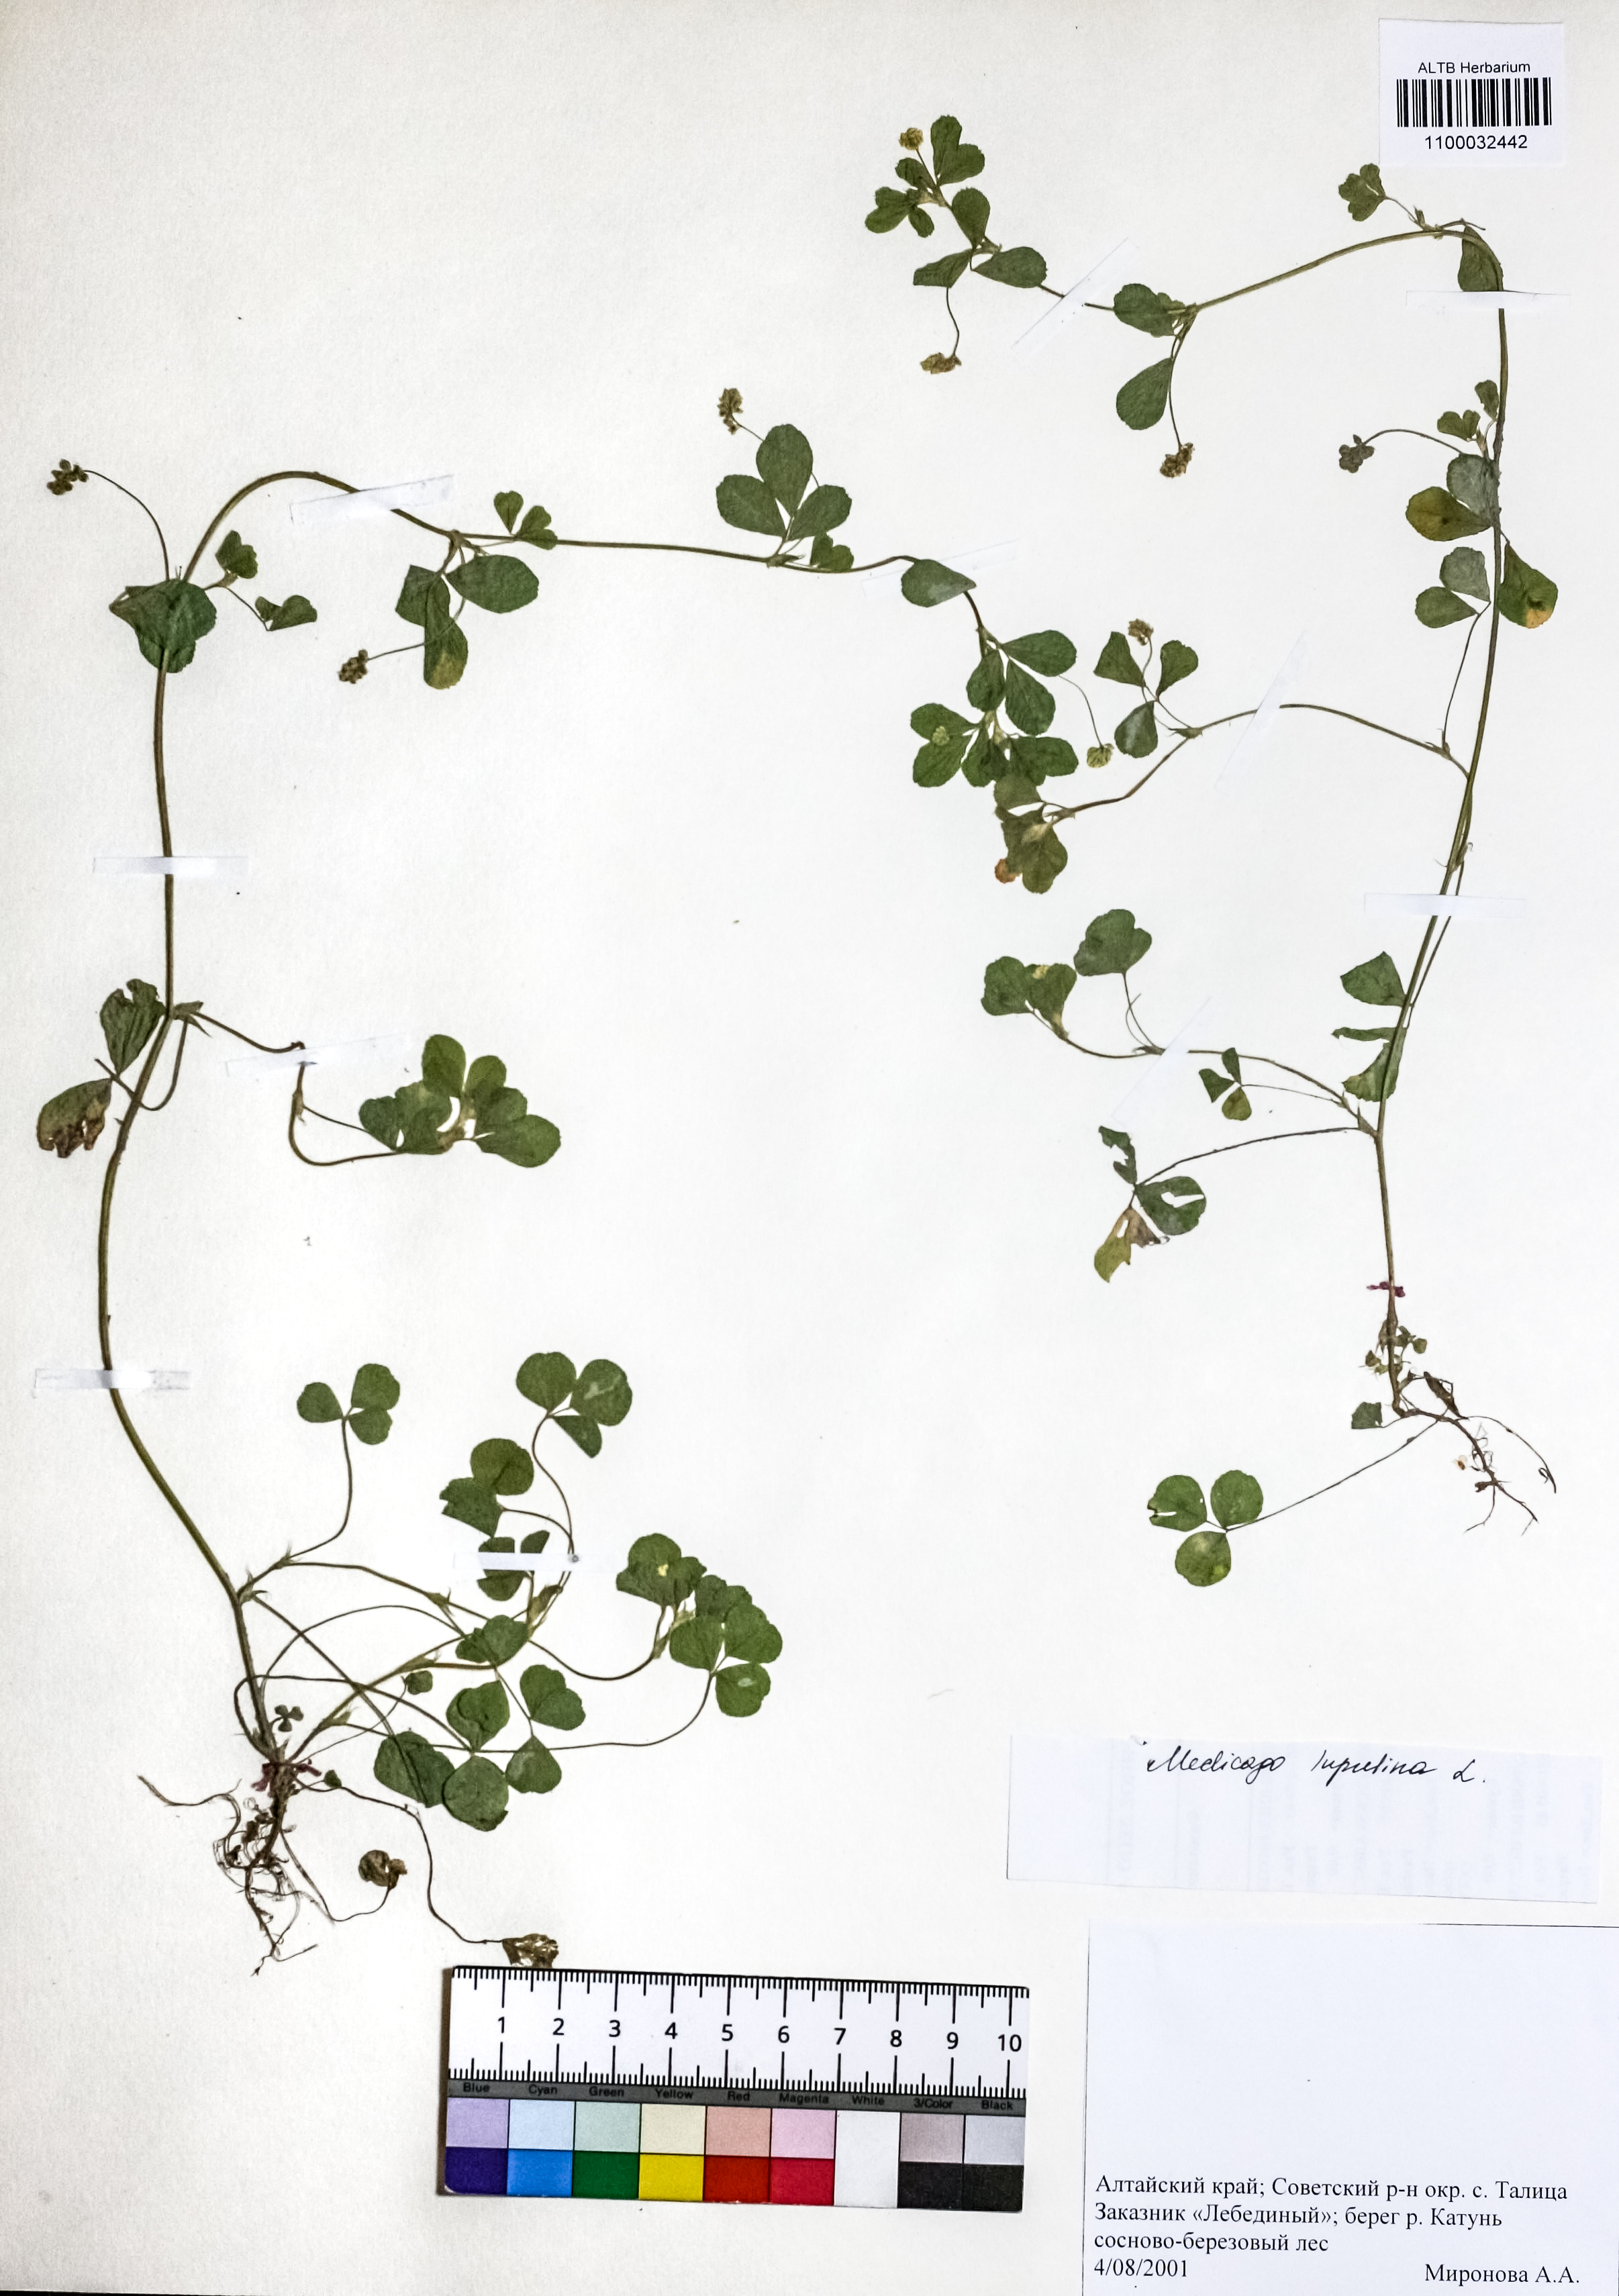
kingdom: Plantae
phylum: Tracheophyta
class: Magnoliopsida
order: Fabales
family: Fabaceae
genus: Medicago
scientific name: Medicago lupulina
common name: Black medick
